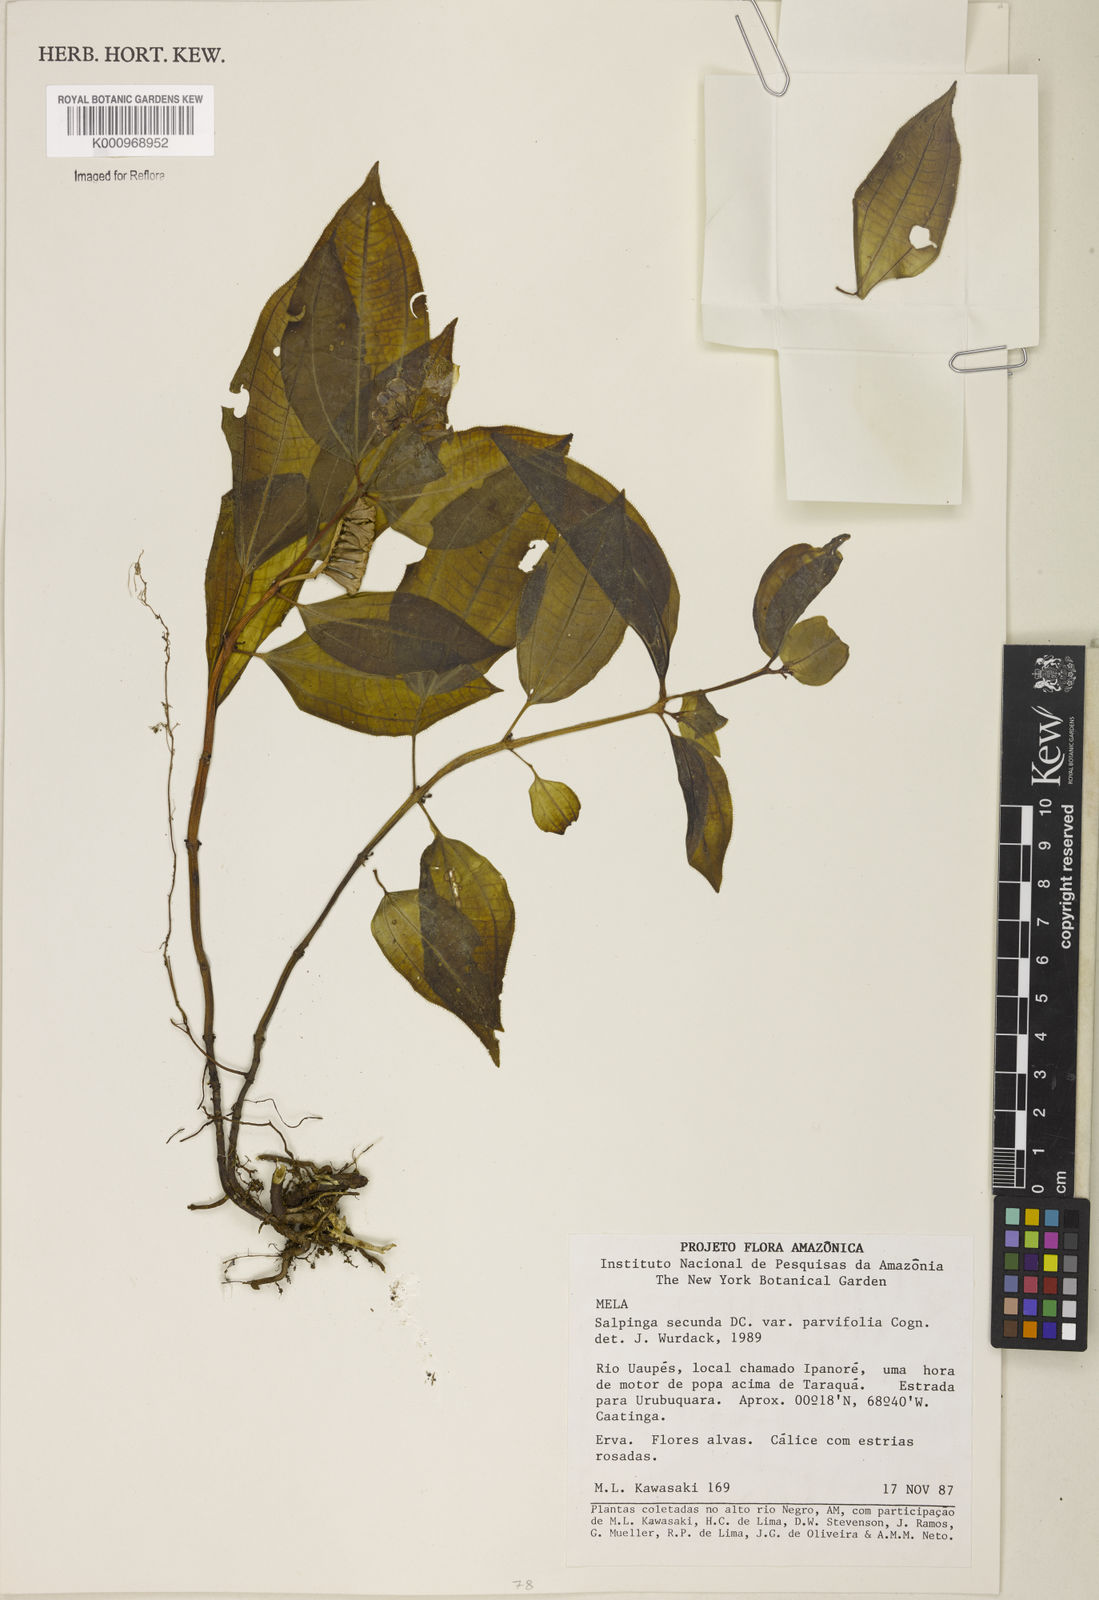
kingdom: Plantae
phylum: Tracheophyta
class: Magnoliopsida
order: Myrtales
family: Melastomataceae
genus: Salpinga
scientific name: Salpinga secunda
